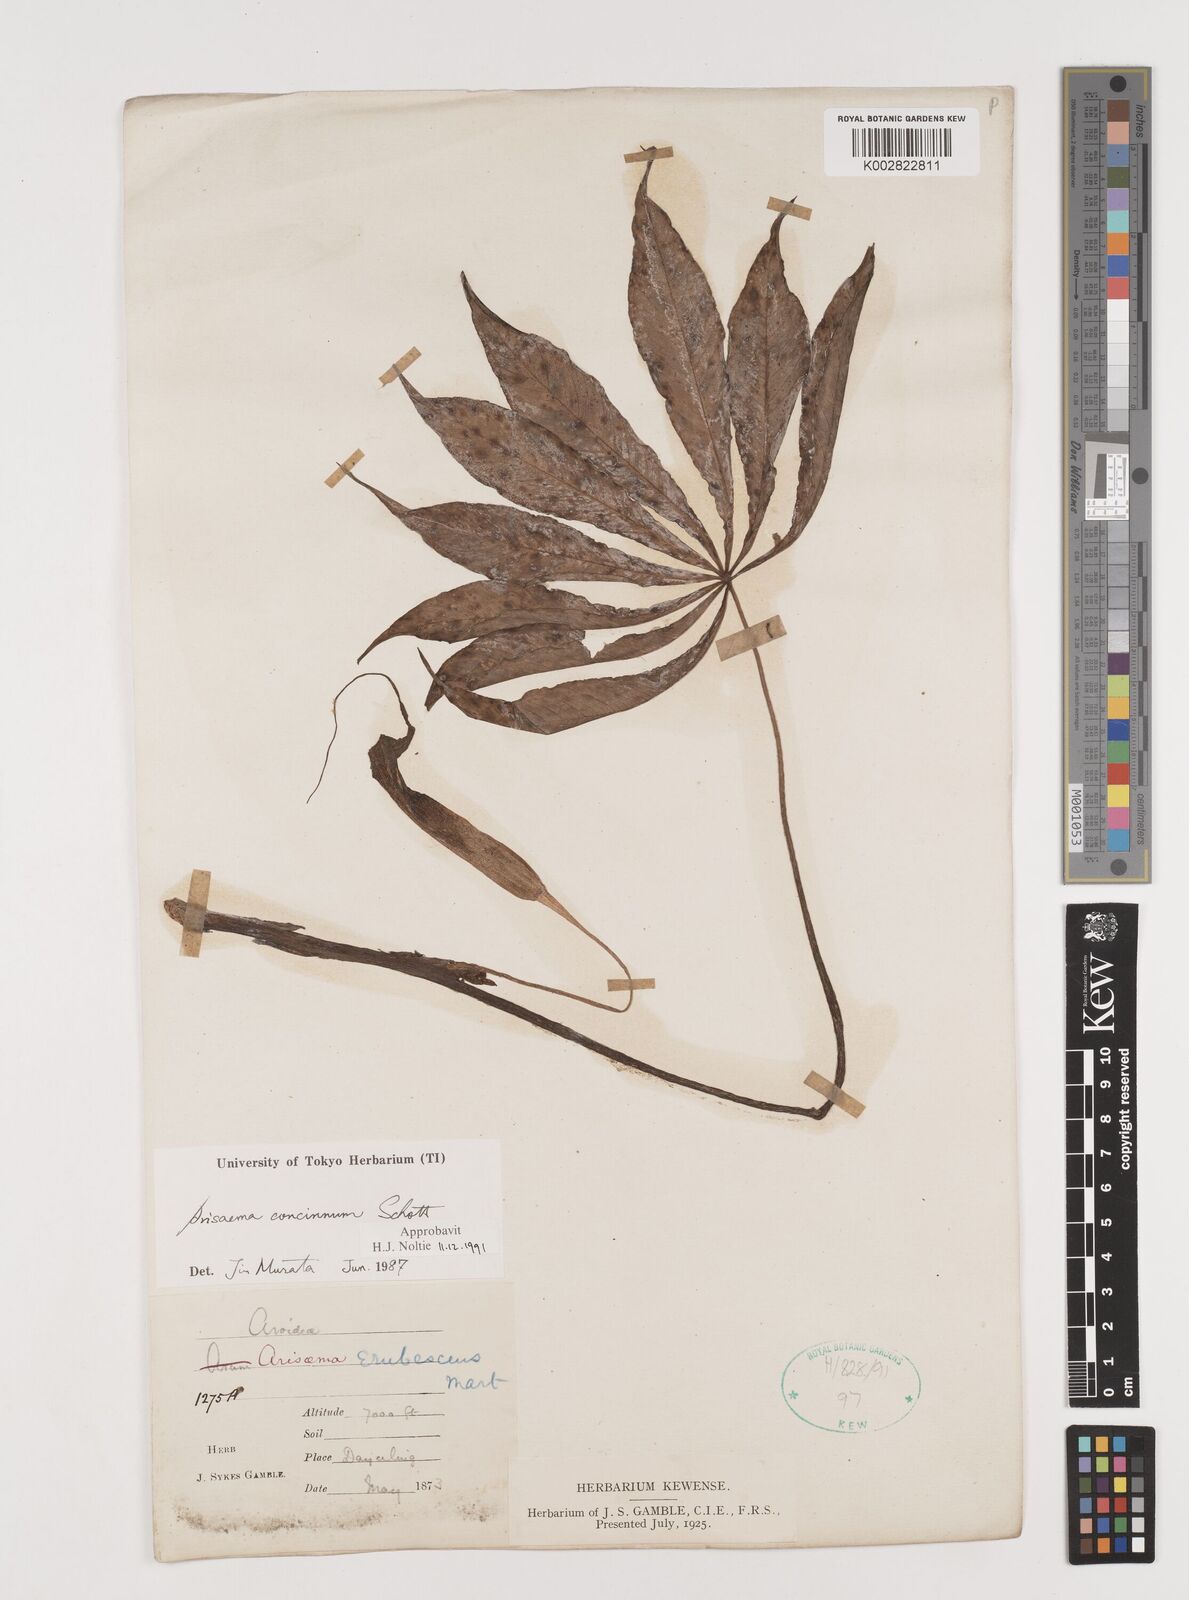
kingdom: Plantae
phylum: Tracheophyta
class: Liliopsida
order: Alismatales
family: Araceae
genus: Arisaema
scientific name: Arisaema concinnum
